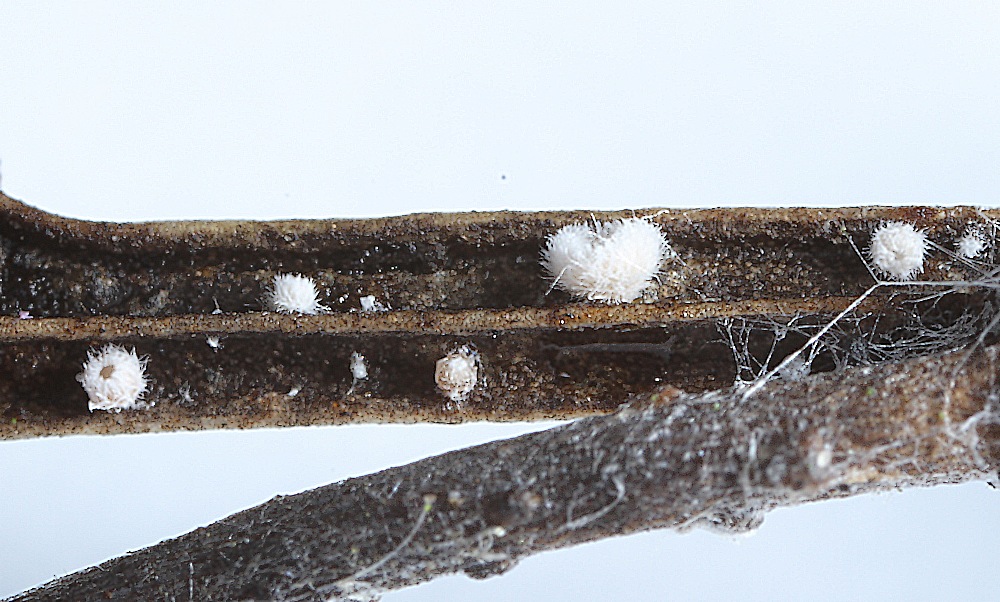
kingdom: Fungi
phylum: Basidiomycota
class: Agaricomycetes
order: Agaricales
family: Niaceae
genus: Flagelloscypha
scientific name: Flagelloscypha obovatispora
